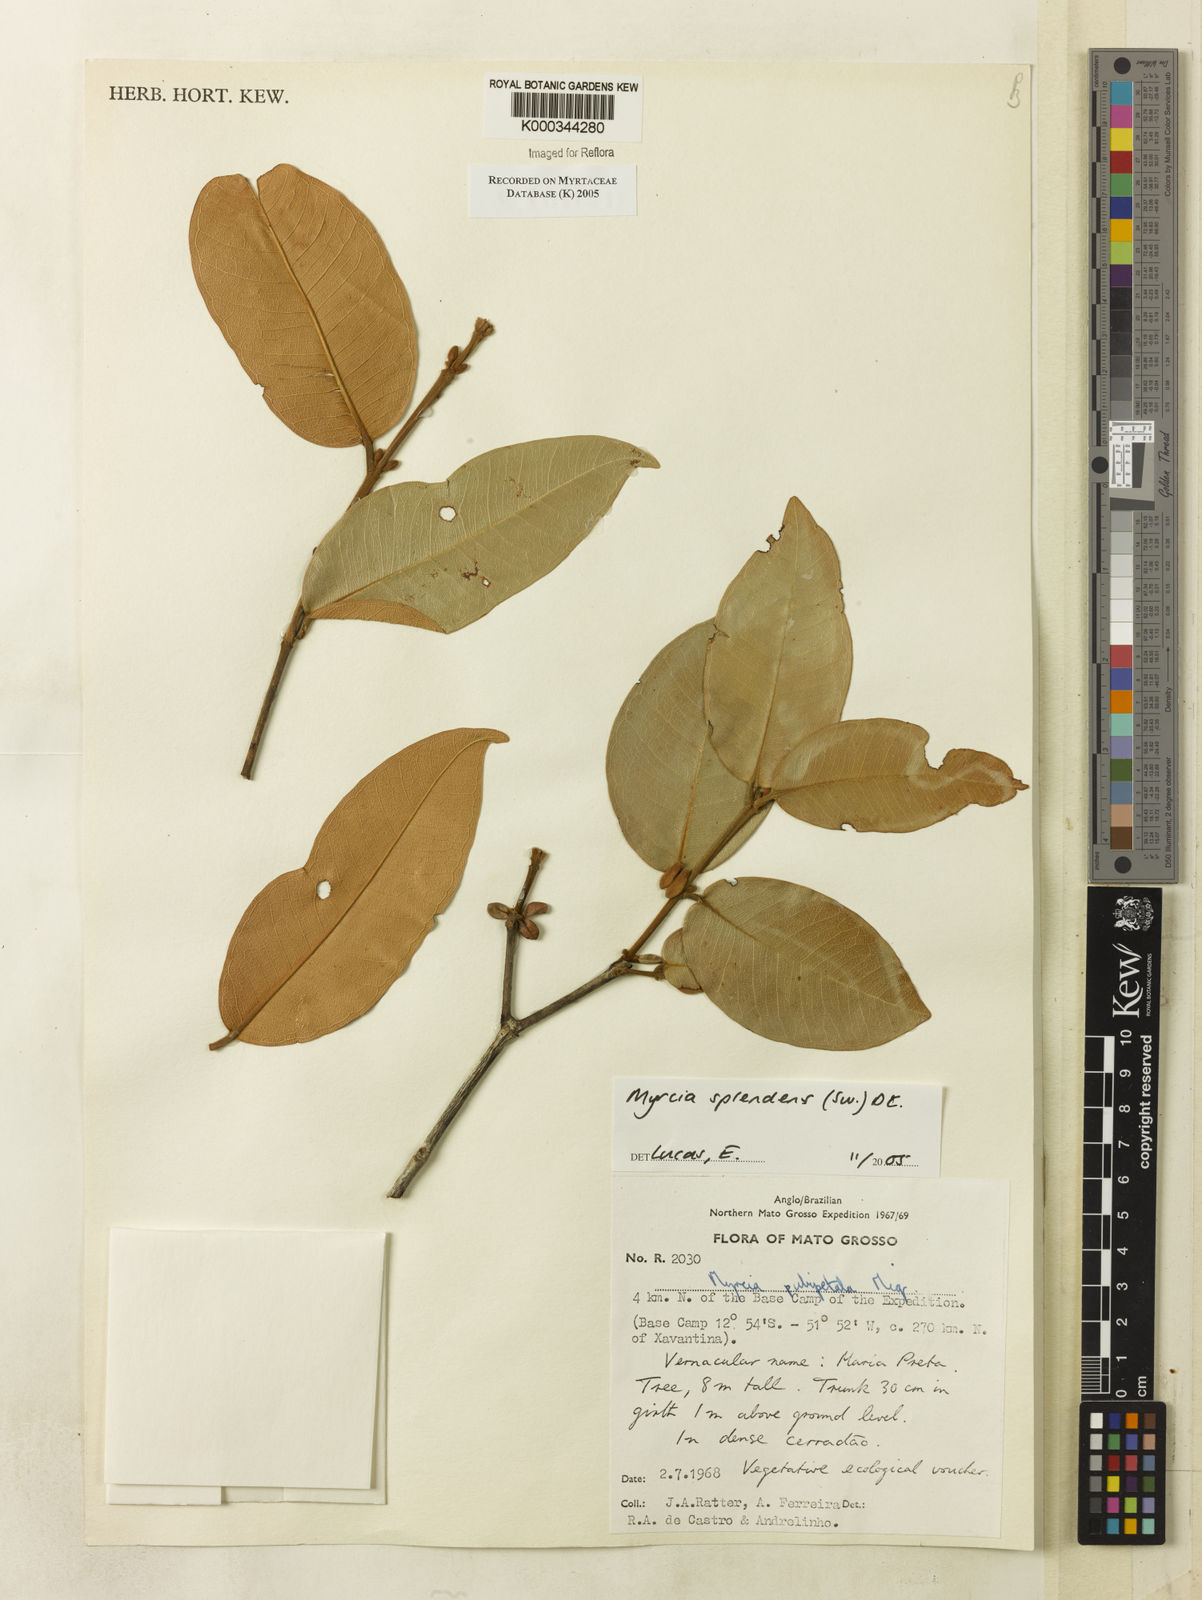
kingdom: Plantae
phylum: Tracheophyta
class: Magnoliopsida
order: Myrtales
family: Myrtaceae
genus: Myrcia
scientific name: Myrcia splendens
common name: Surinam cherry
